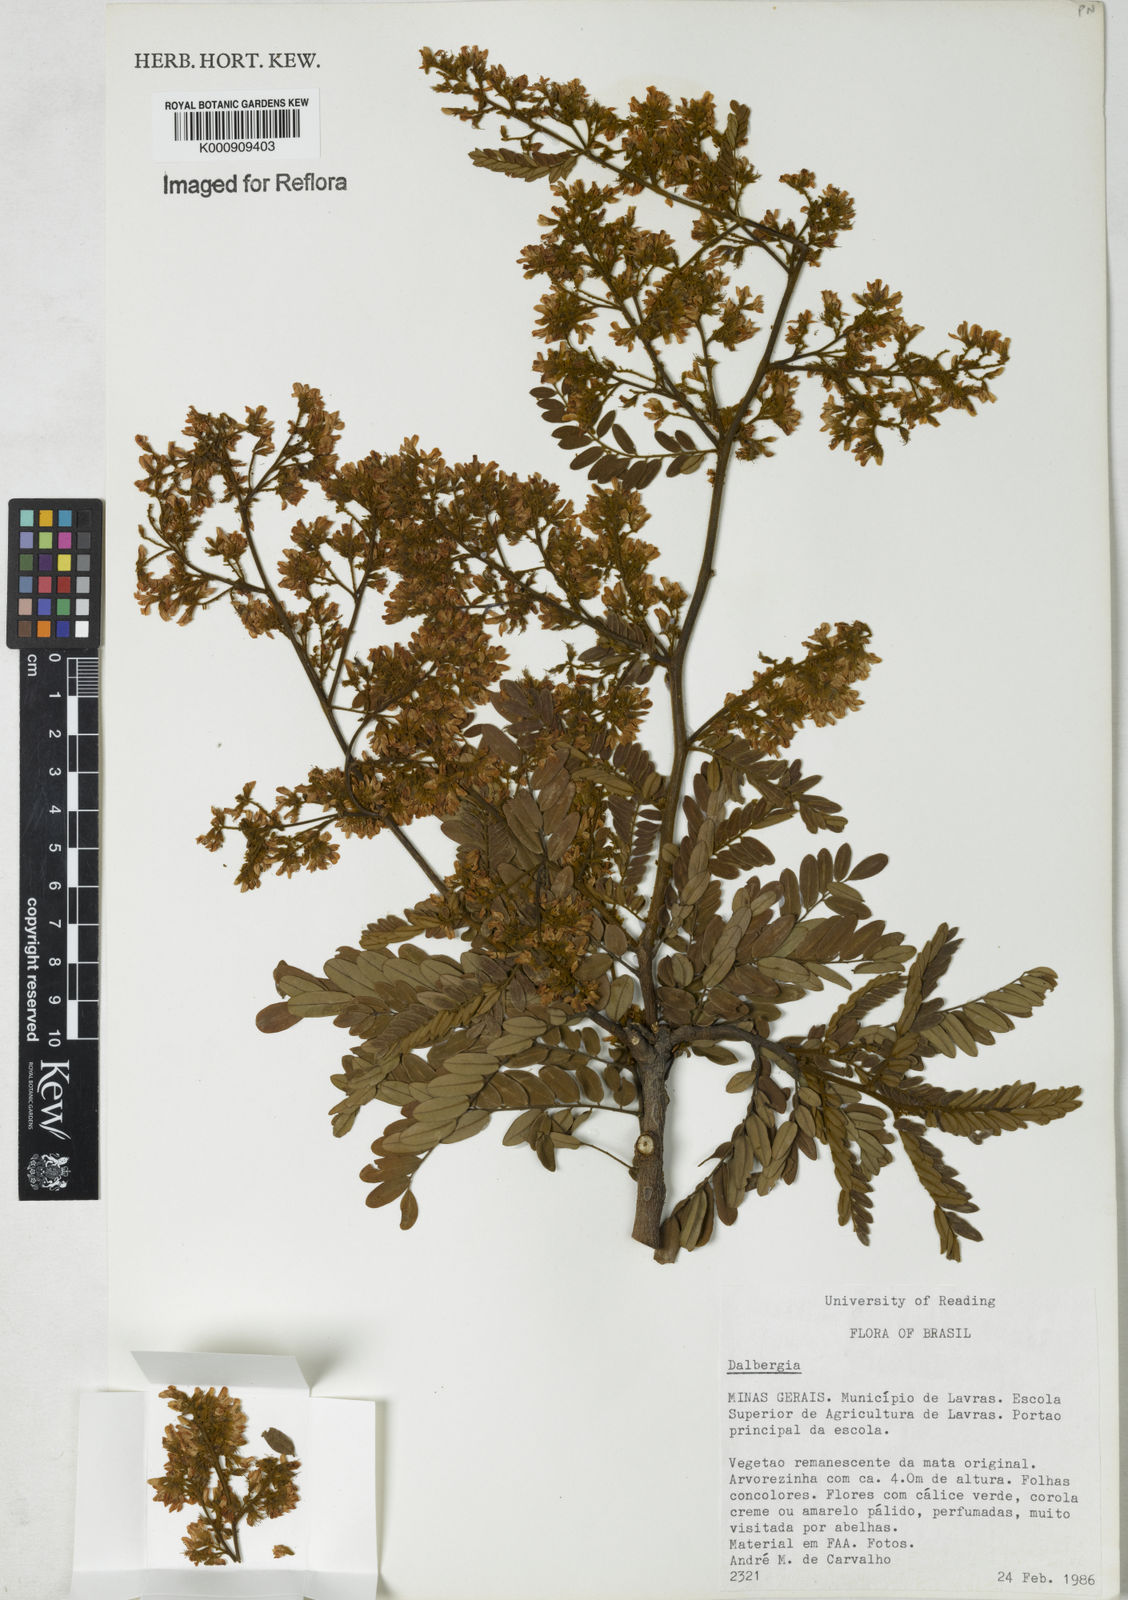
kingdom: Plantae
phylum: Tracheophyta
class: Magnoliopsida
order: Fabales
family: Fabaceae
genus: Dalbergia
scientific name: Dalbergia
